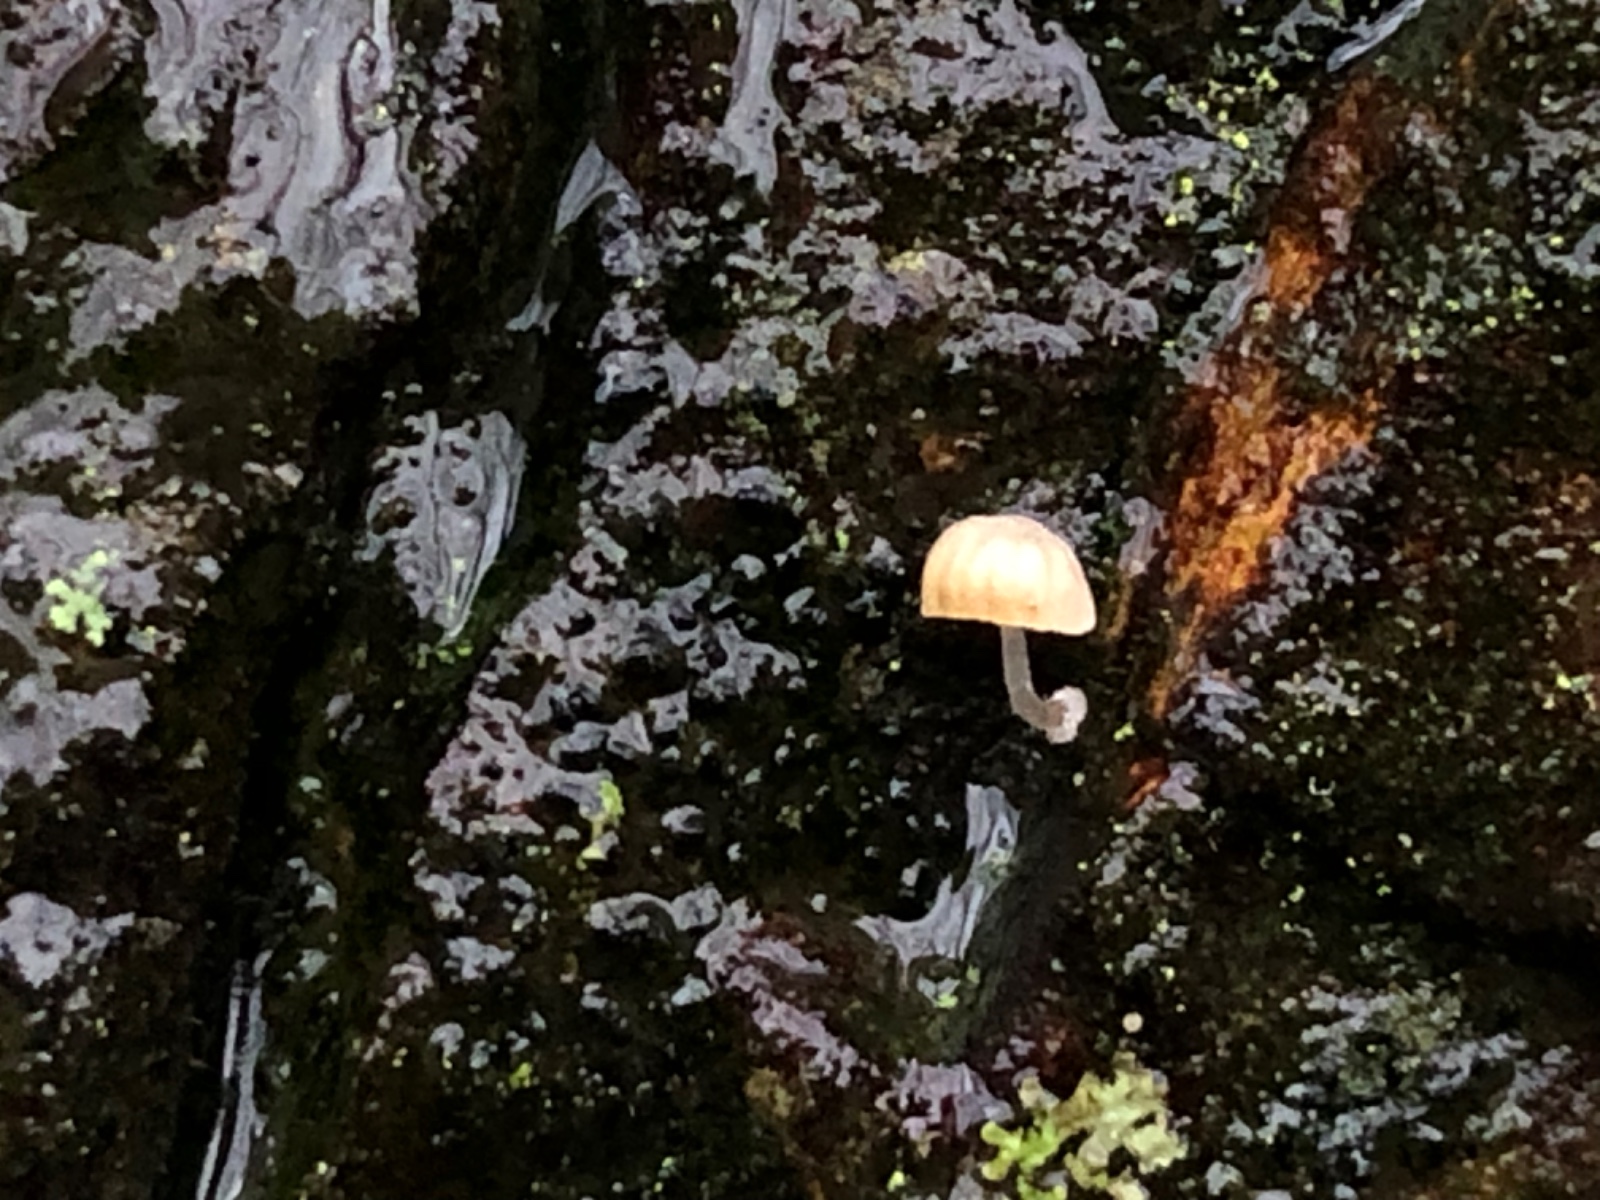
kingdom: Fungi
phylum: Basidiomycota
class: Agaricomycetes
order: Agaricales
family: Mycenaceae
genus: Mycena
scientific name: Mycena clavularis
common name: dunskivet huesvamp
